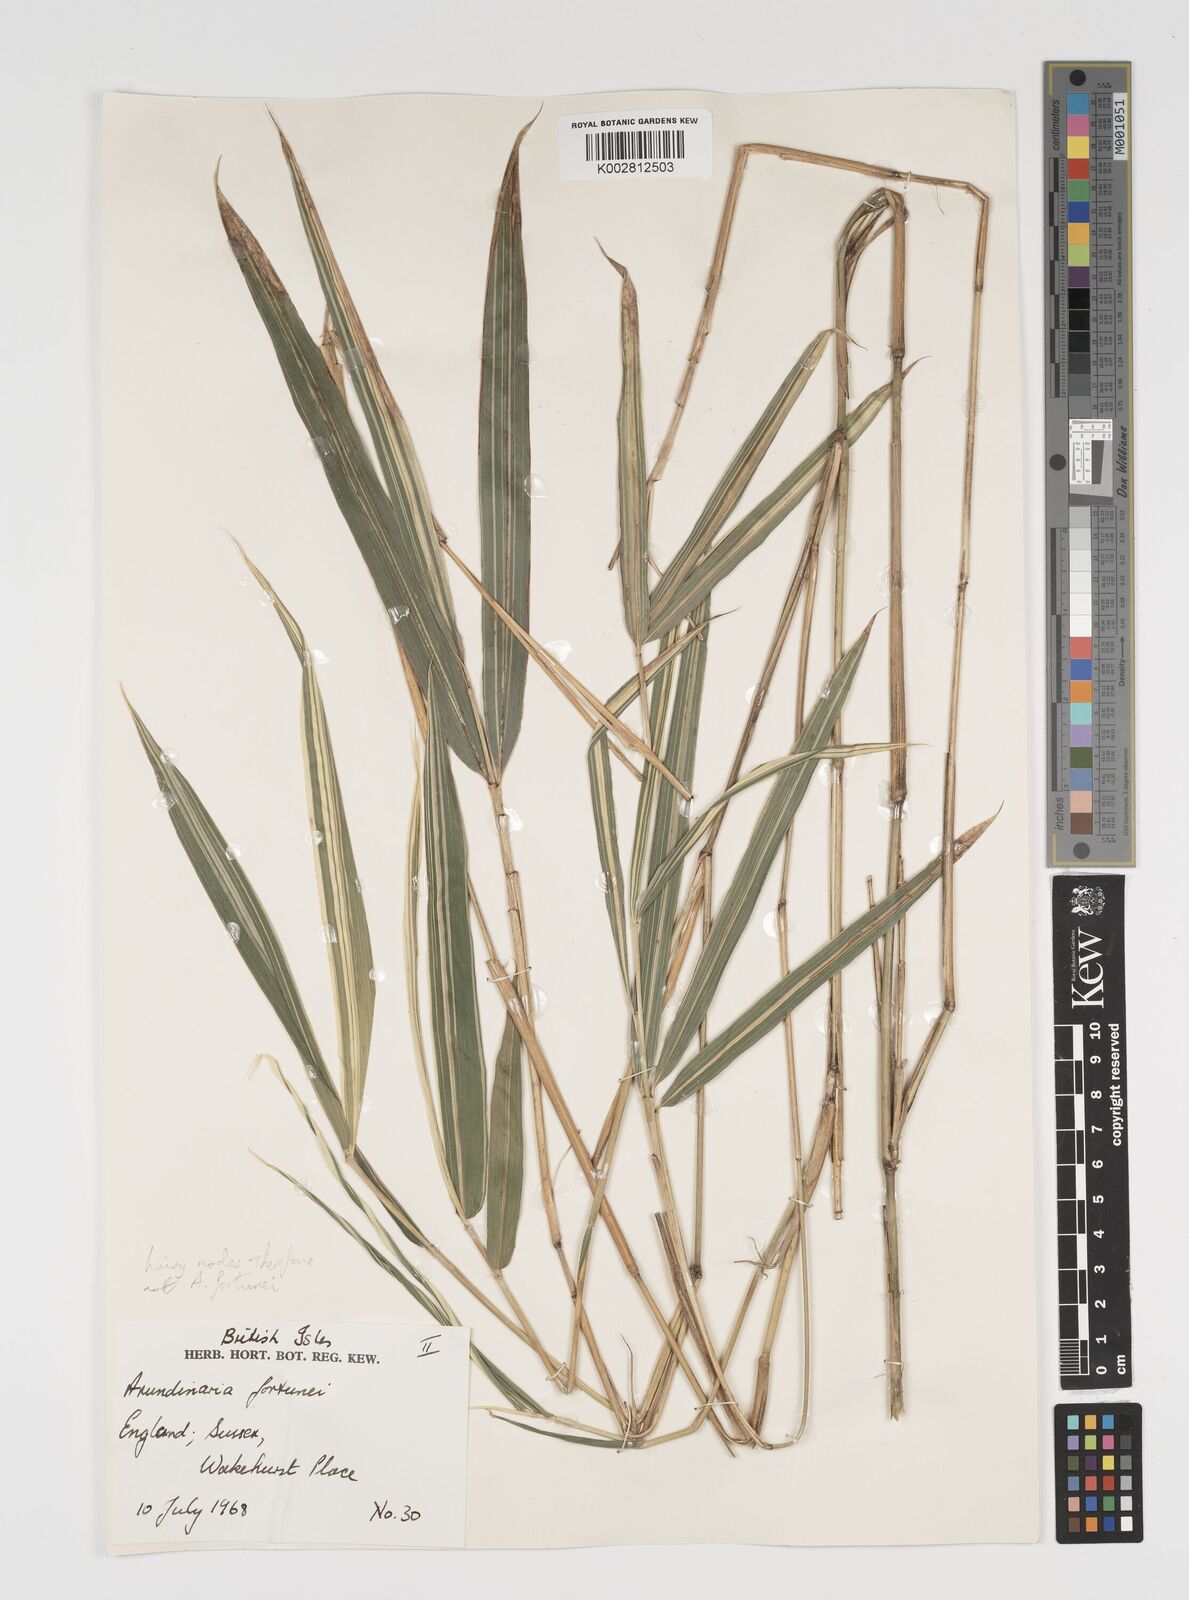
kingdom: Plantae
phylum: Tracheophyta
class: Liliopsida
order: Poales
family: Poaceae
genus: Arundinaria
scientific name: Arundinaria
